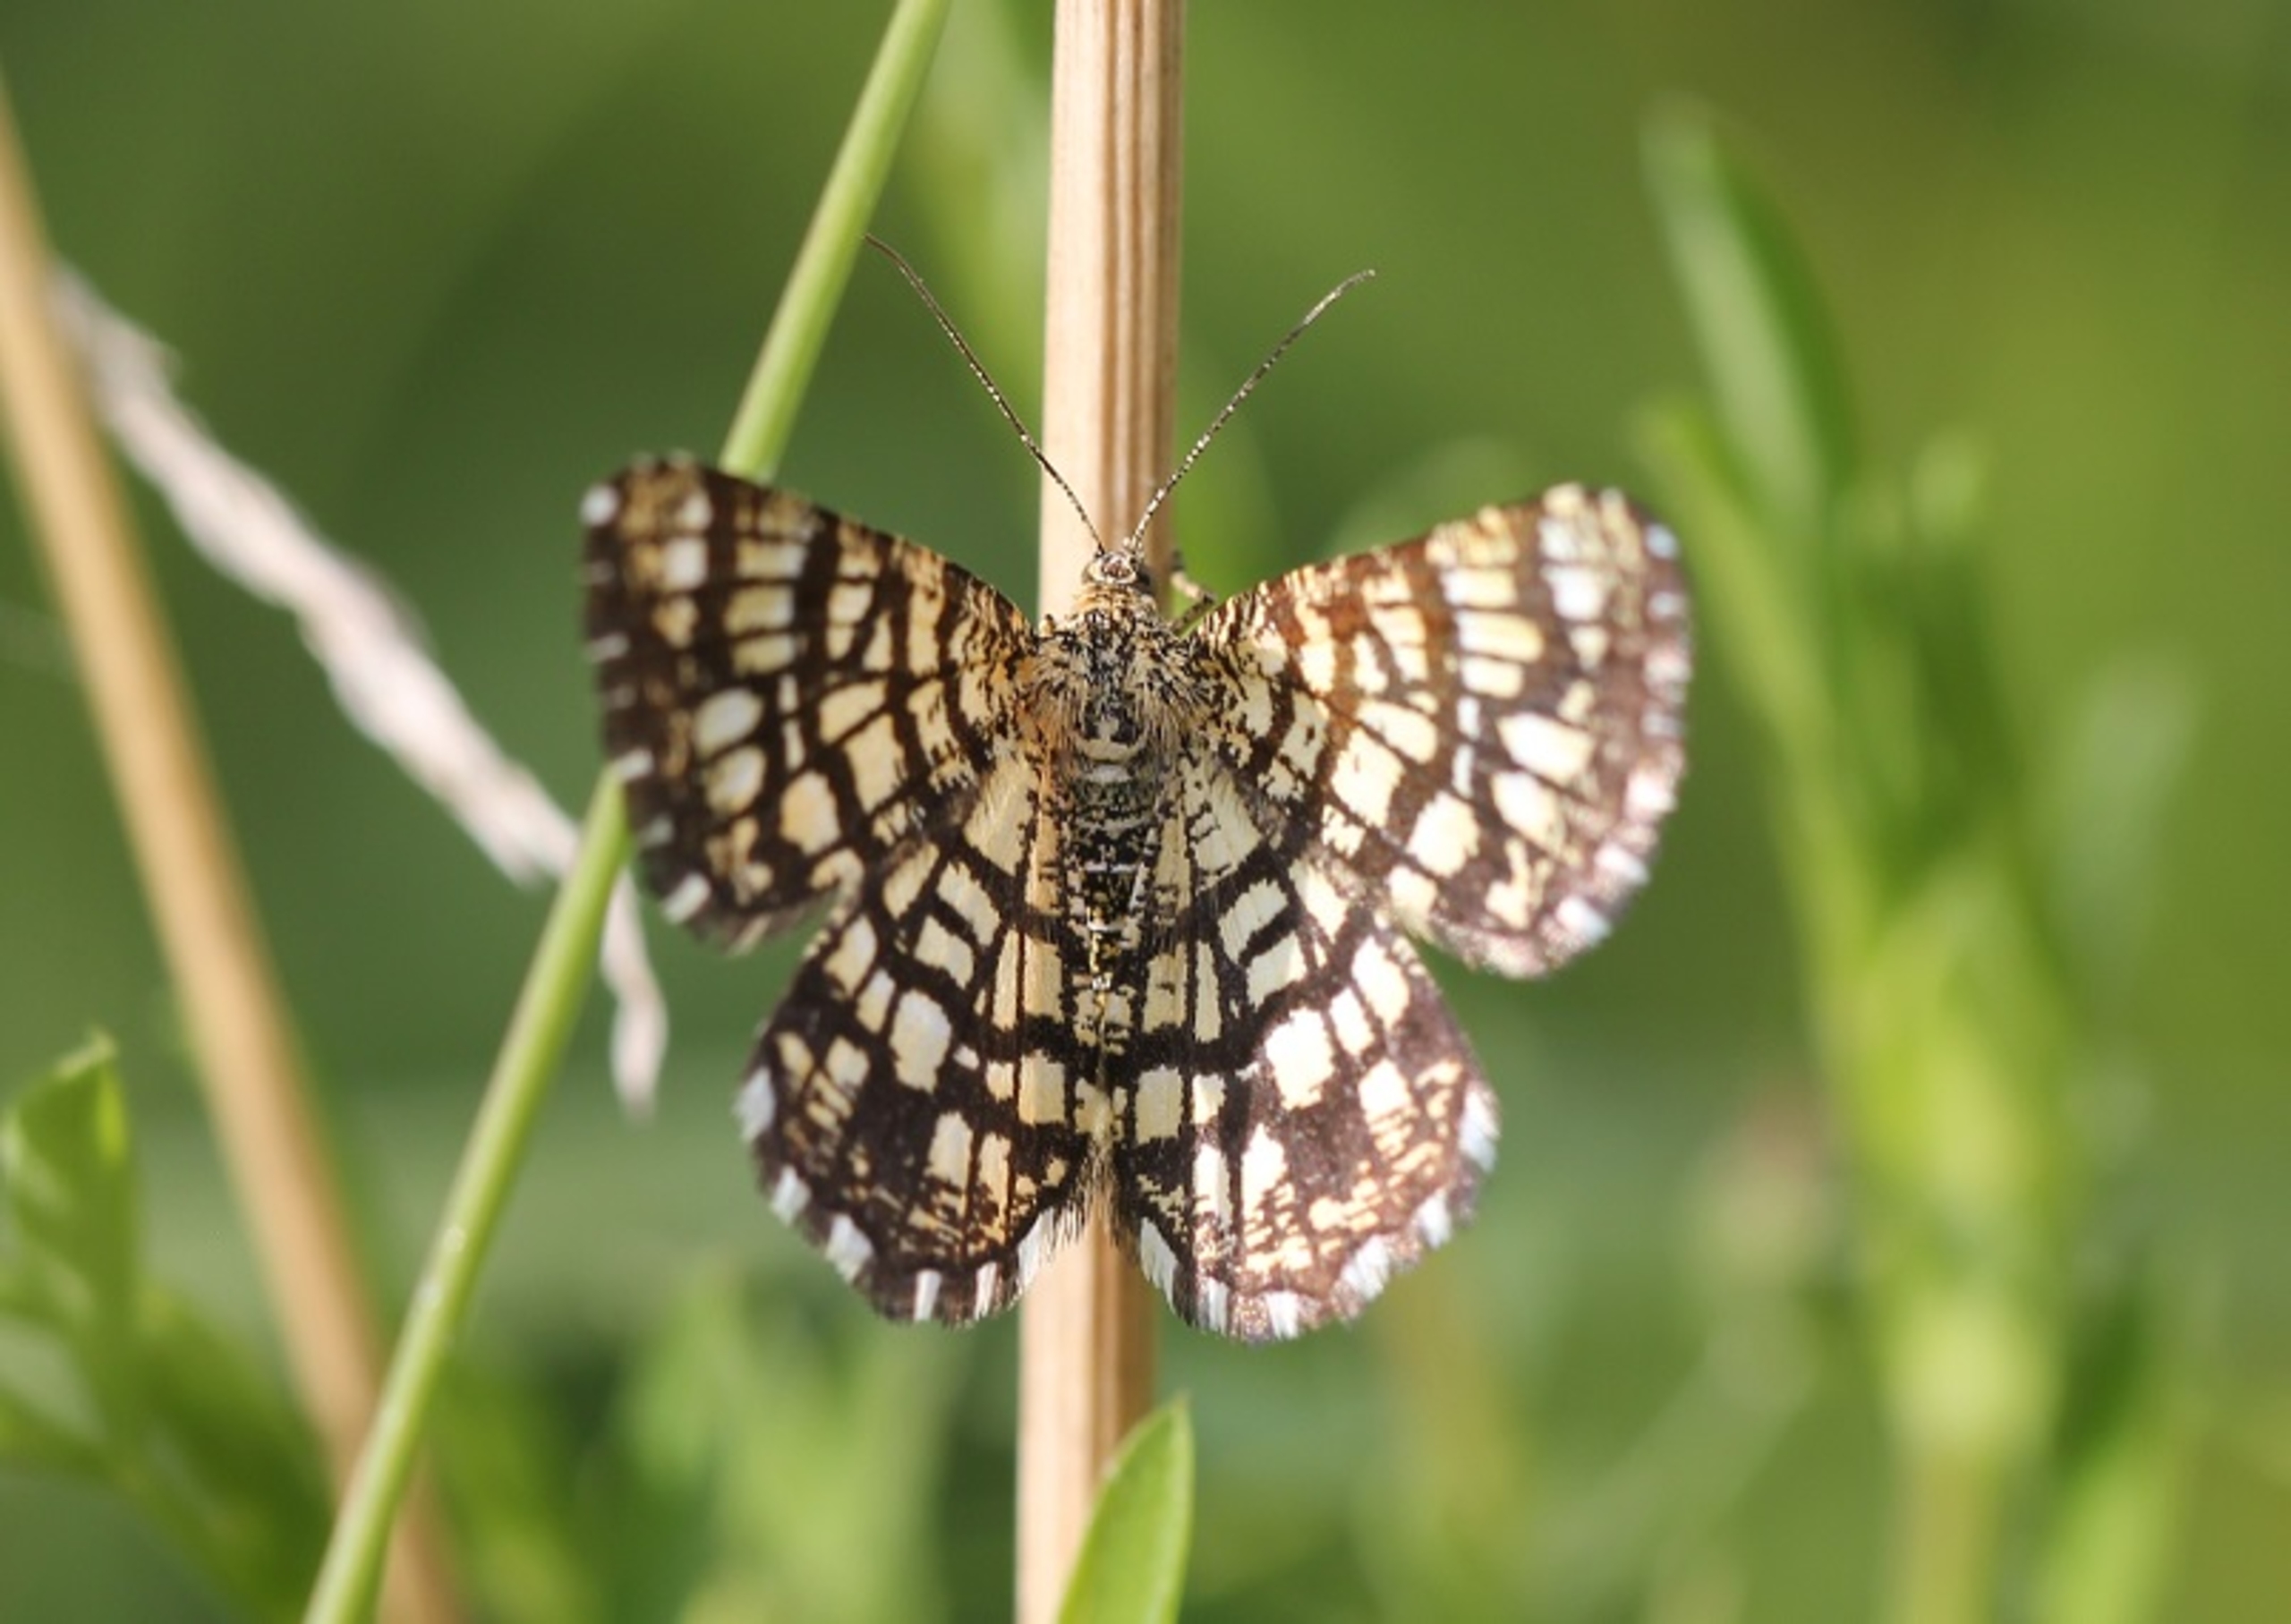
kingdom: Animalia
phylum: Arthropoda
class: Insecta
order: Lepidoptera
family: Geometridae
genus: Chiasmia
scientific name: Chiasmia clathrata
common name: Kløvermåler
